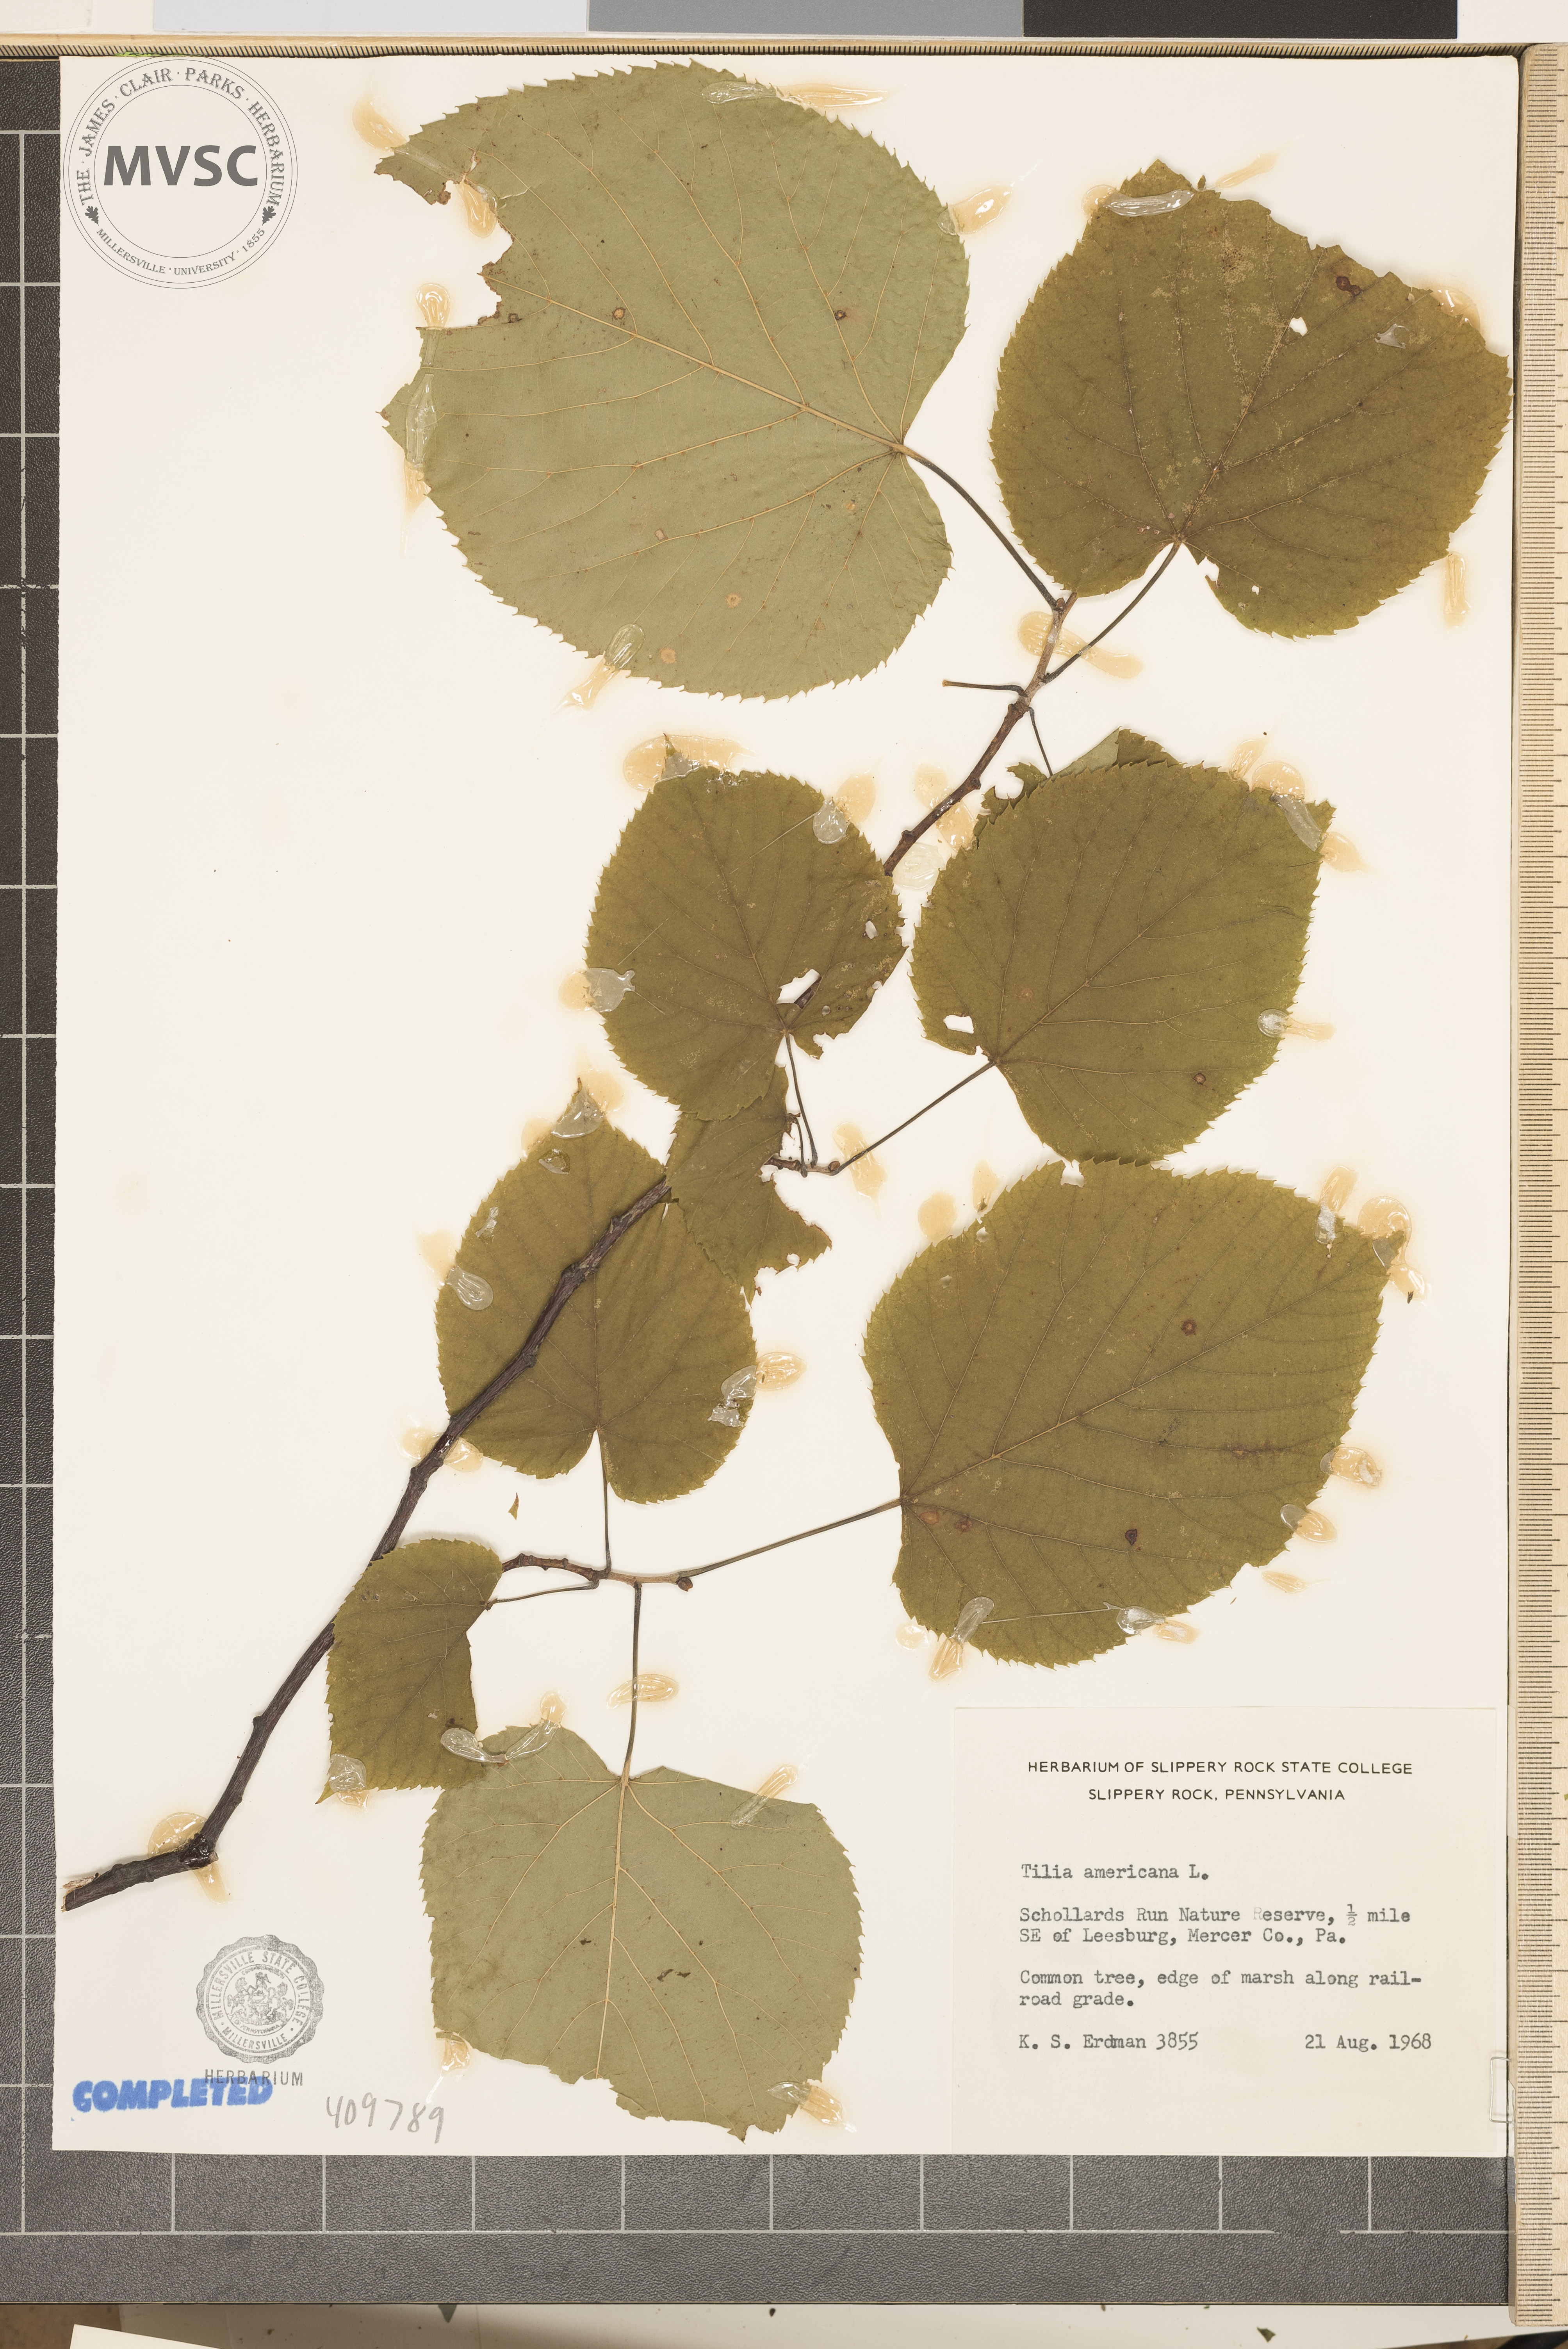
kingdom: Plantae
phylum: Tracheophyta
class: Magnoliopsida
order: Malvales
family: Malvaceae
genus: Tilia
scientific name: Tilia americana
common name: American basswood
